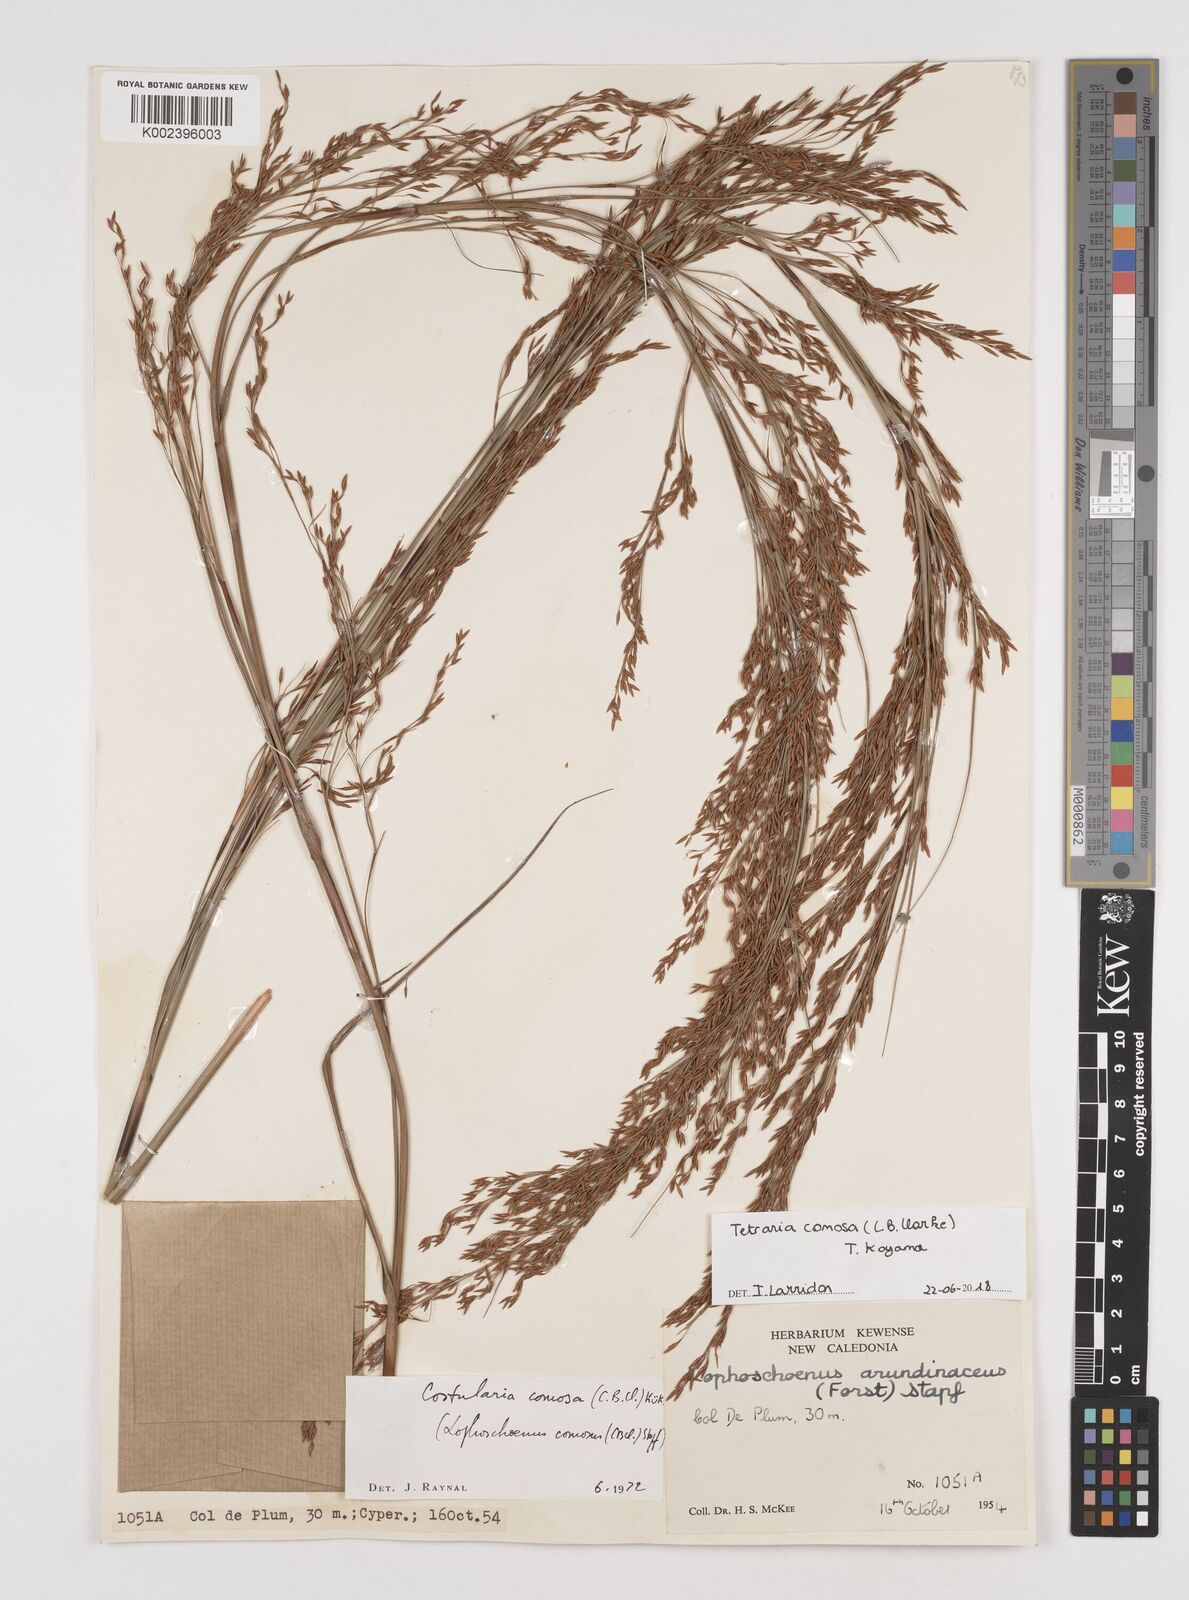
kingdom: Plantae
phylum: Tracheophyta
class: Liliopsida
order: Poales
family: Cyperaceae
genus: Tetraria
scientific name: Tetraria comosa
